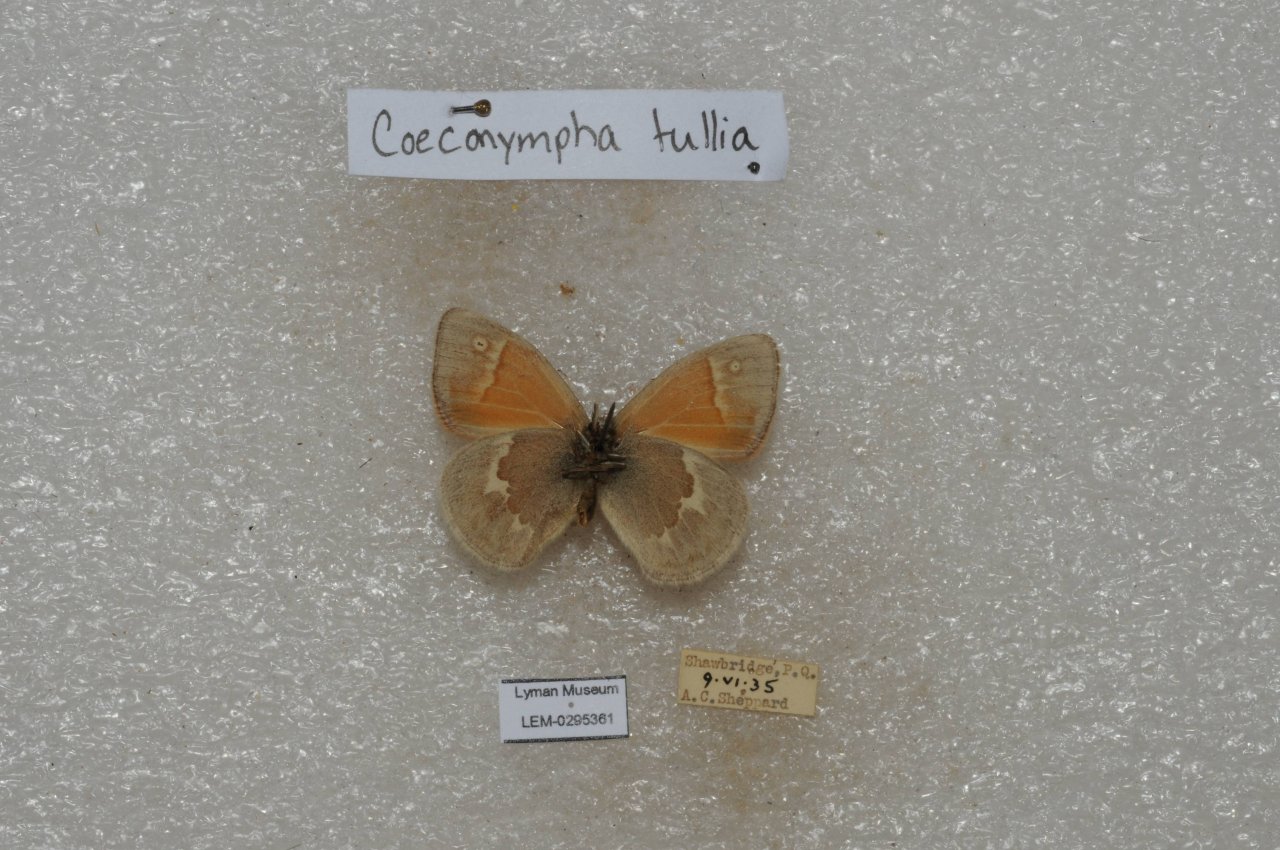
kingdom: Animalia
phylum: Arthropoda
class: Insecta
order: Lepidoptera
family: Nymphalidae
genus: Coenonympha
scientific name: Coenonympha tullia
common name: Large Heath
